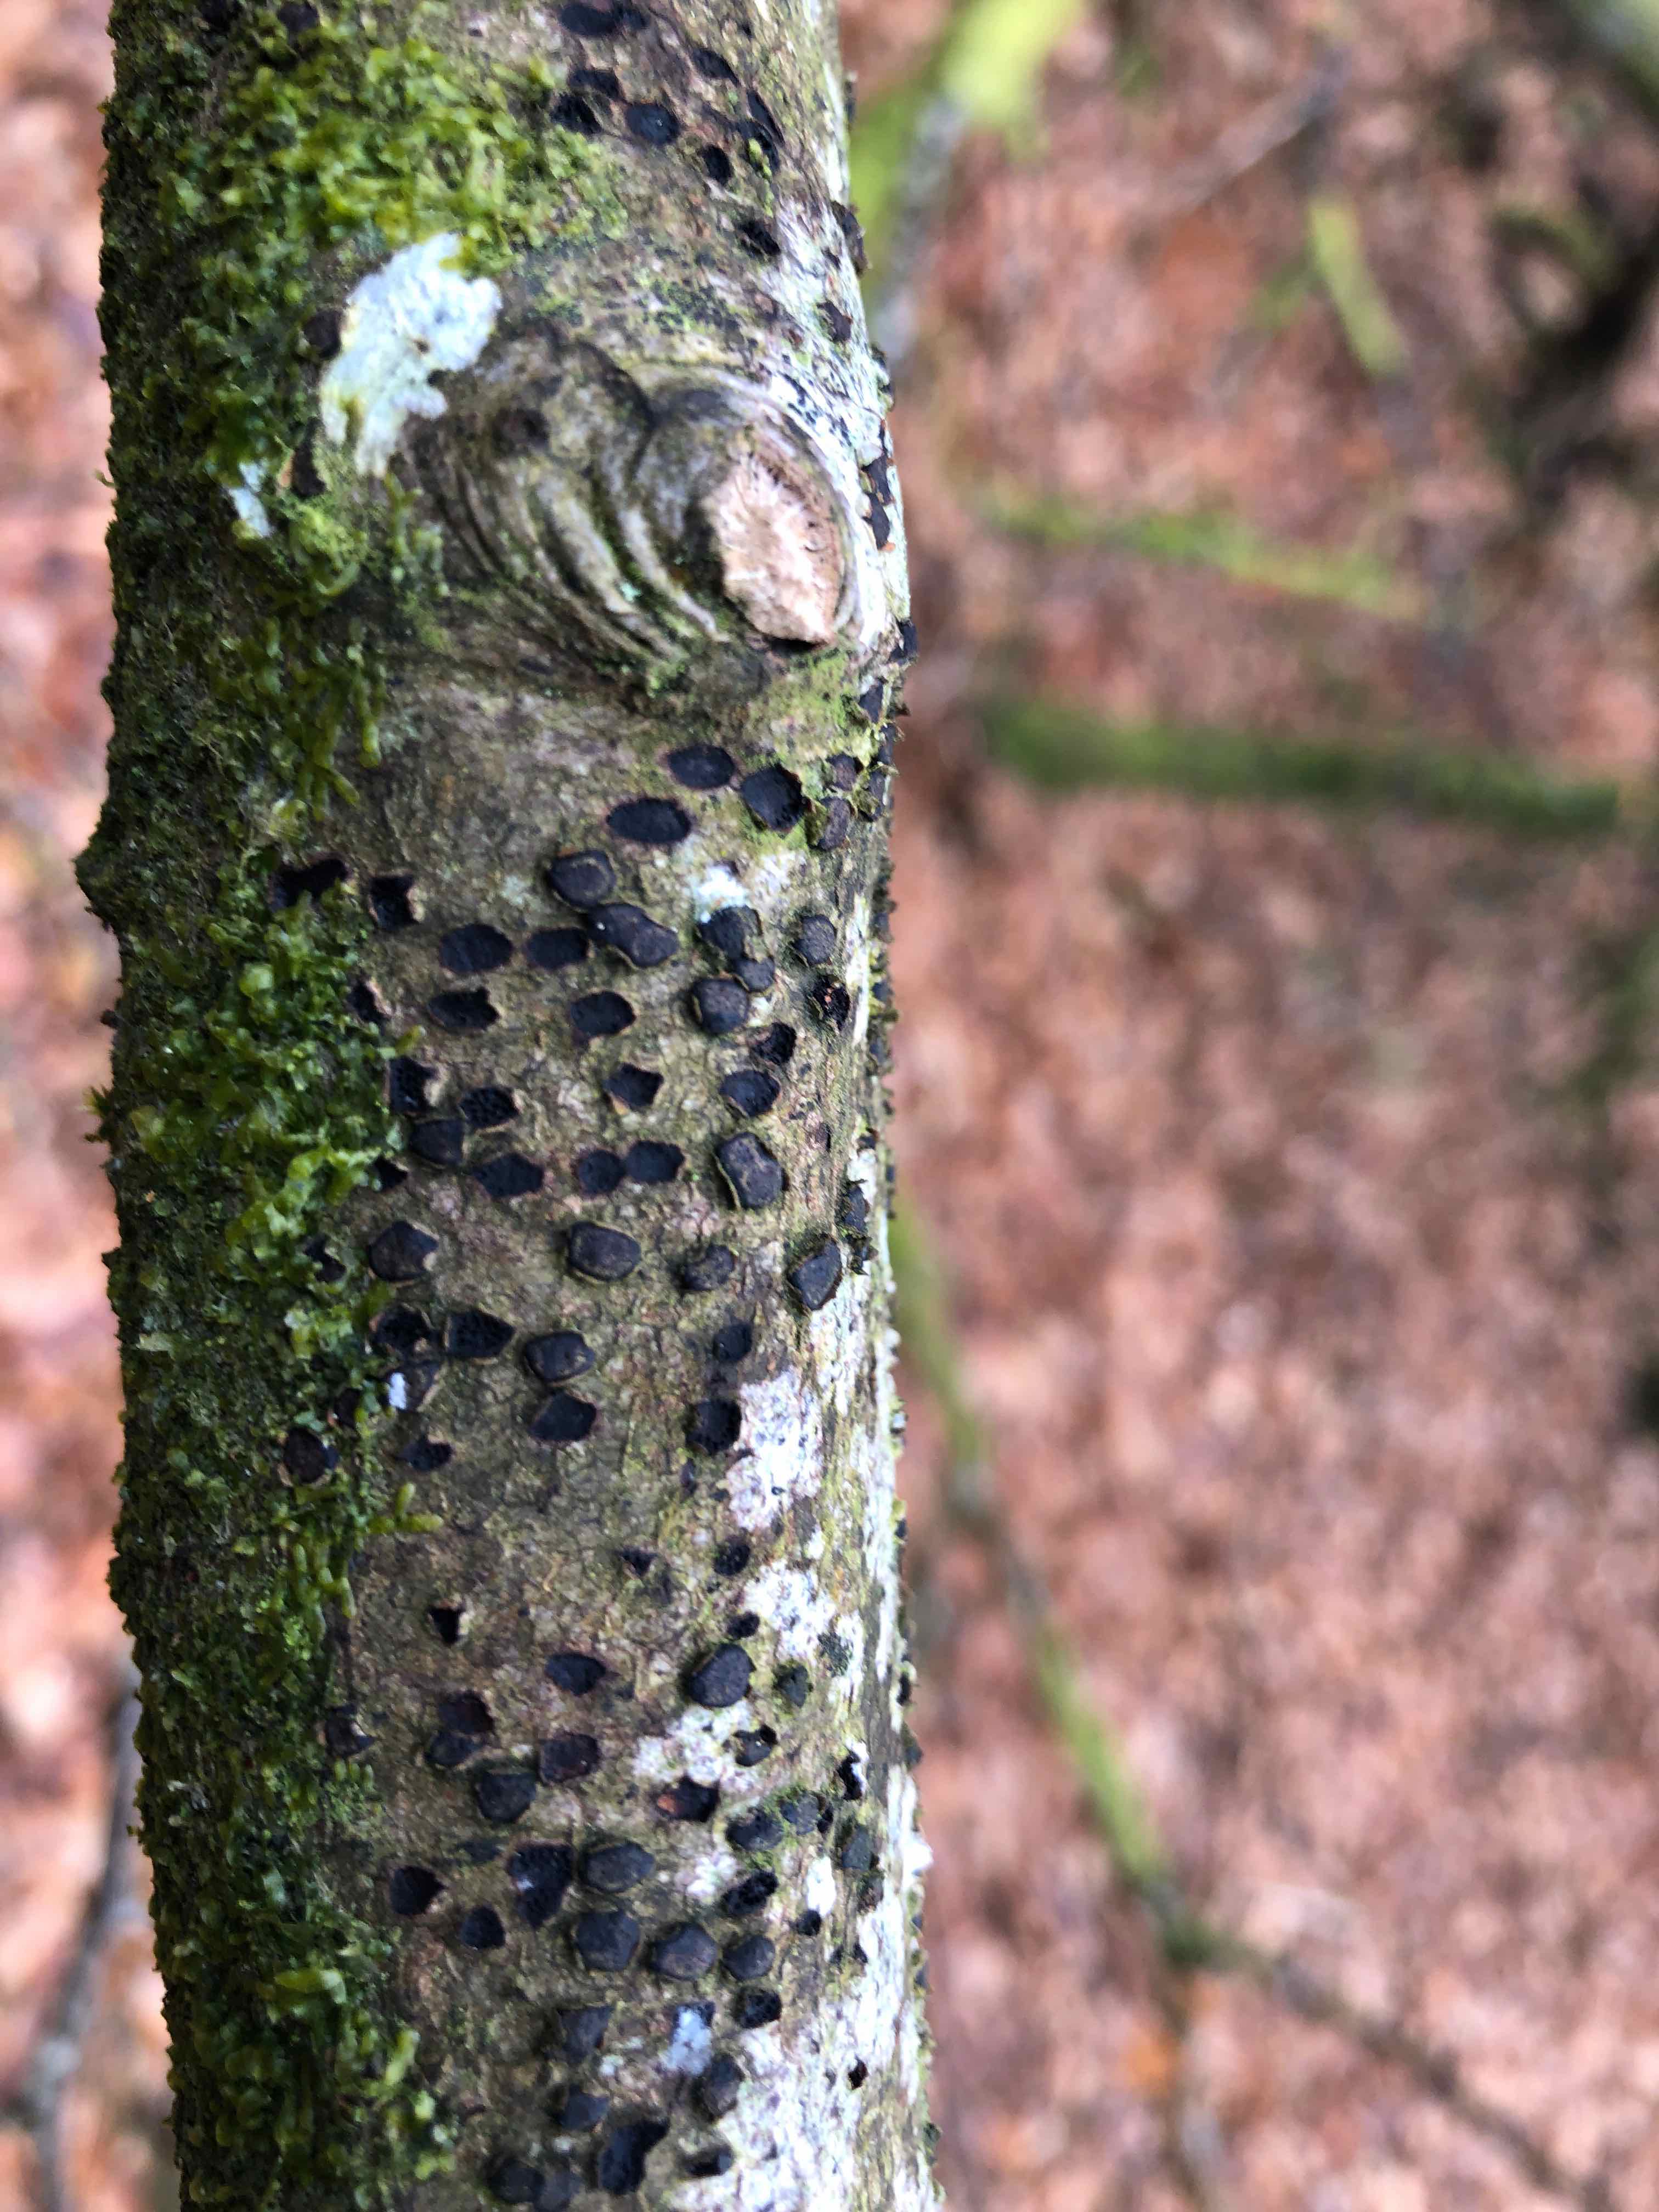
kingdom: Fungi
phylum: Ascomycota
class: Sordariomycetes
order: Xylariales
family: Diatrypaceae
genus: Diatrype
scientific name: Diatrype disciformis
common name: kant-kulskorpe
